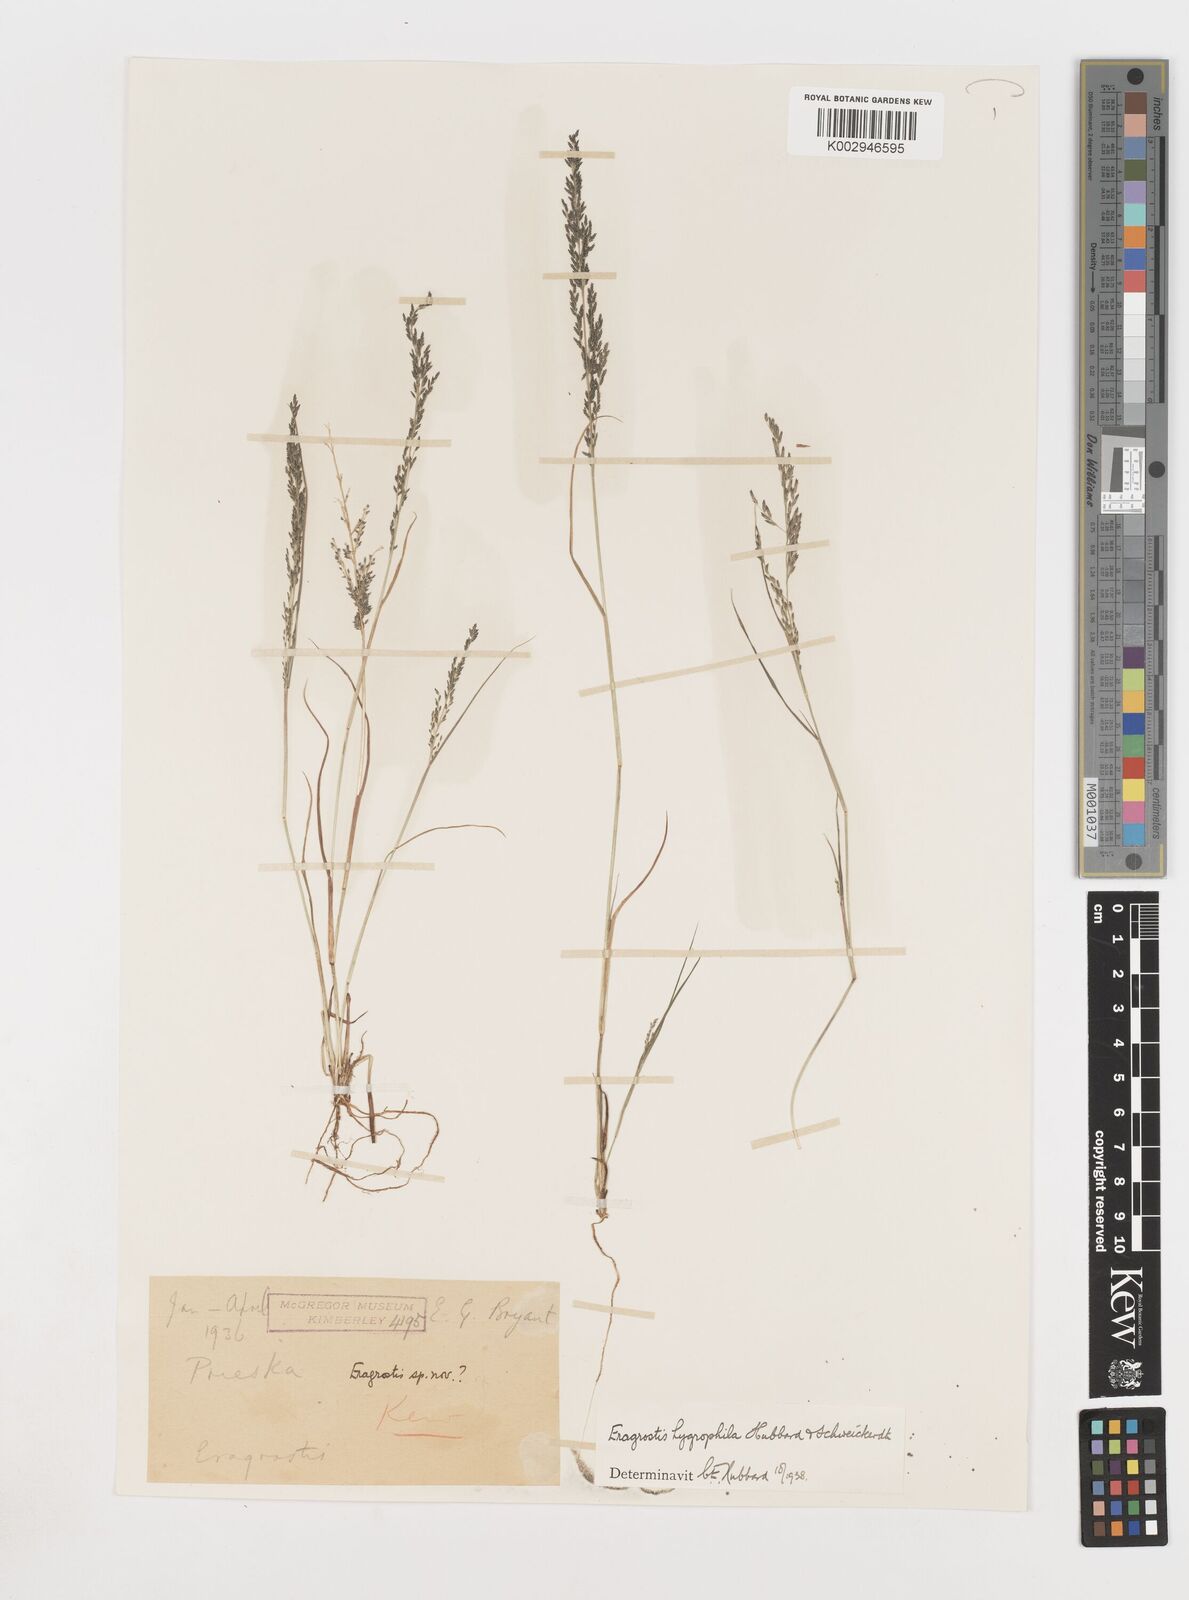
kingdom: Plantae
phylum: Tracheophyta
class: Liliopsida
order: Poales
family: Poaceae
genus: Eragrostis
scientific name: Eragrostis homomalla
